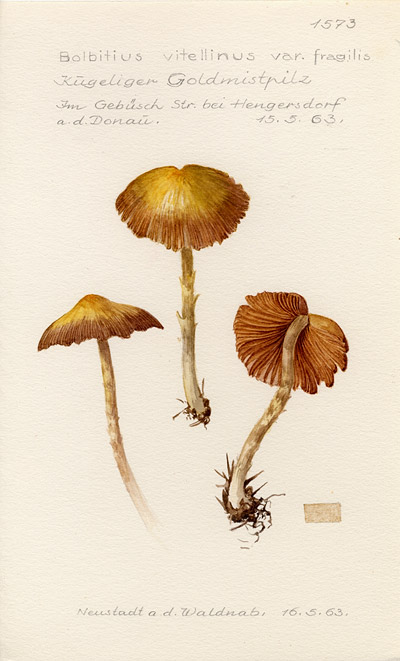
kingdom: Fungi
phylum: Basidiomycota
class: Agaricomycetes
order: Agaricales
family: Bolbitiaceae
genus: Bolbitius
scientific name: Bolbitius titubans
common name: Yellow fieldcap
